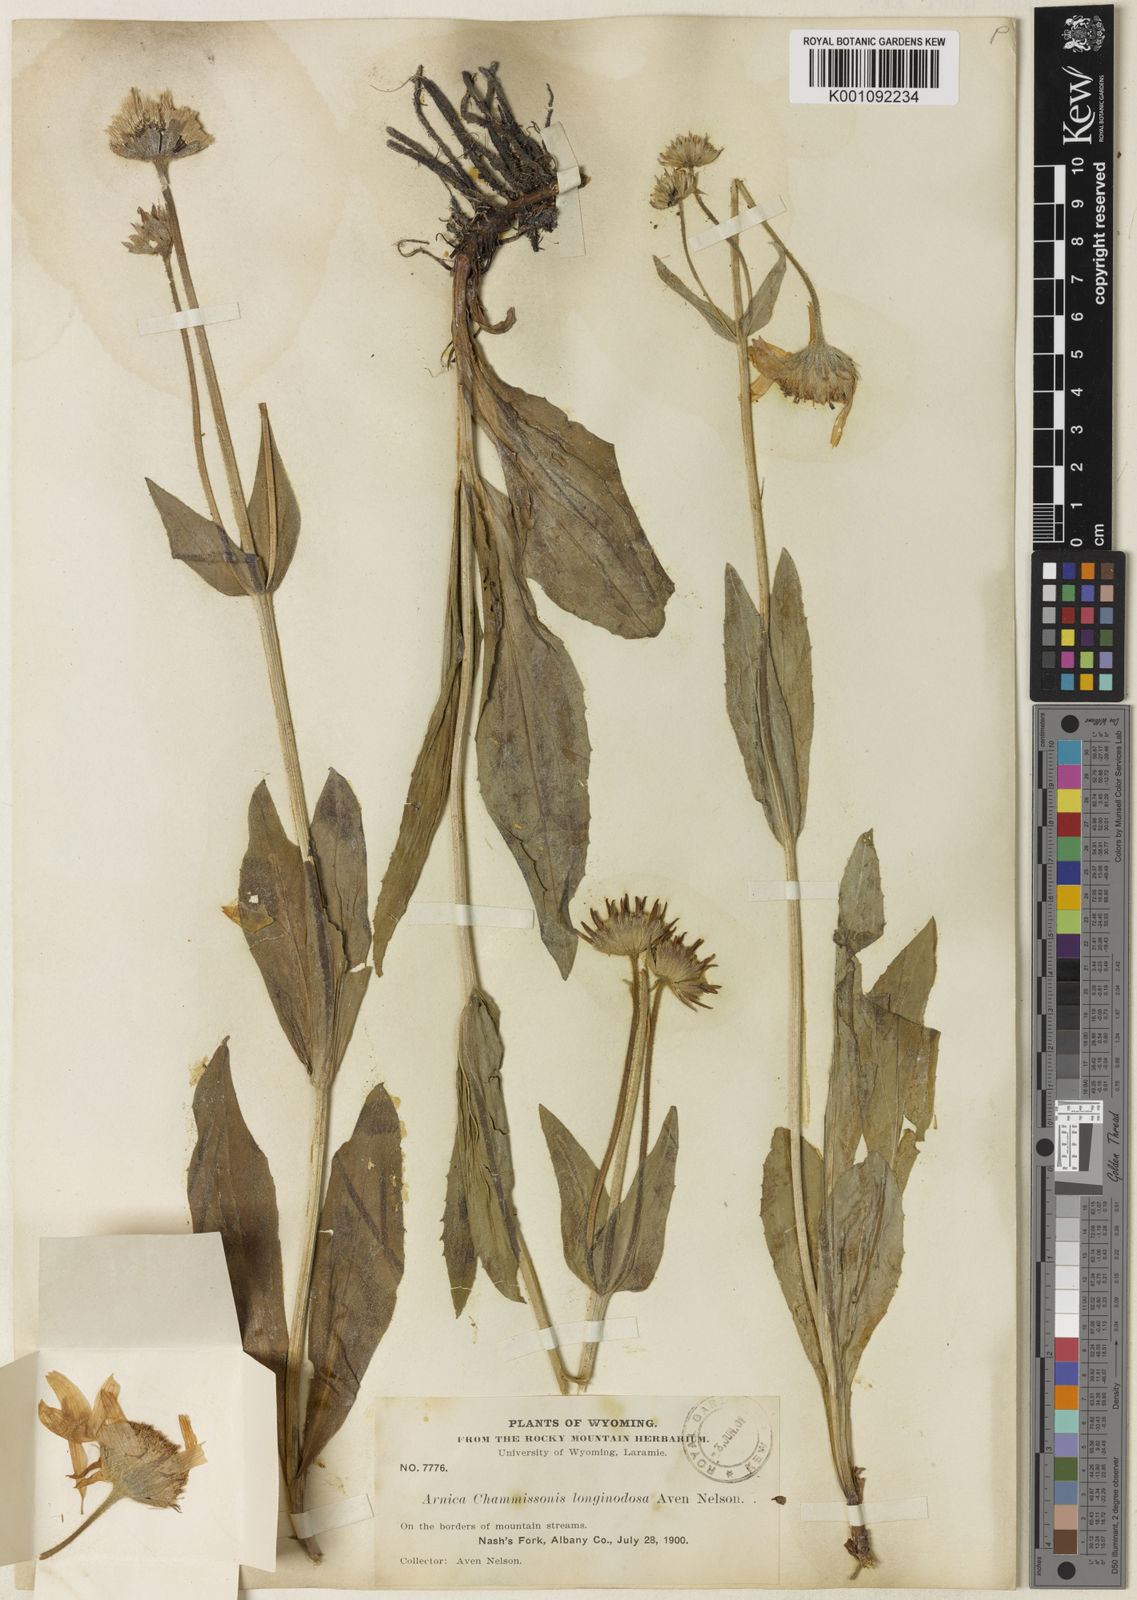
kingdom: Plantae
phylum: Tracheophyta
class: Magnoliopsida
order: Asterales
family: Asteraceae
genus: Arnica
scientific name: Arnica mollis
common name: Hairy arnica
